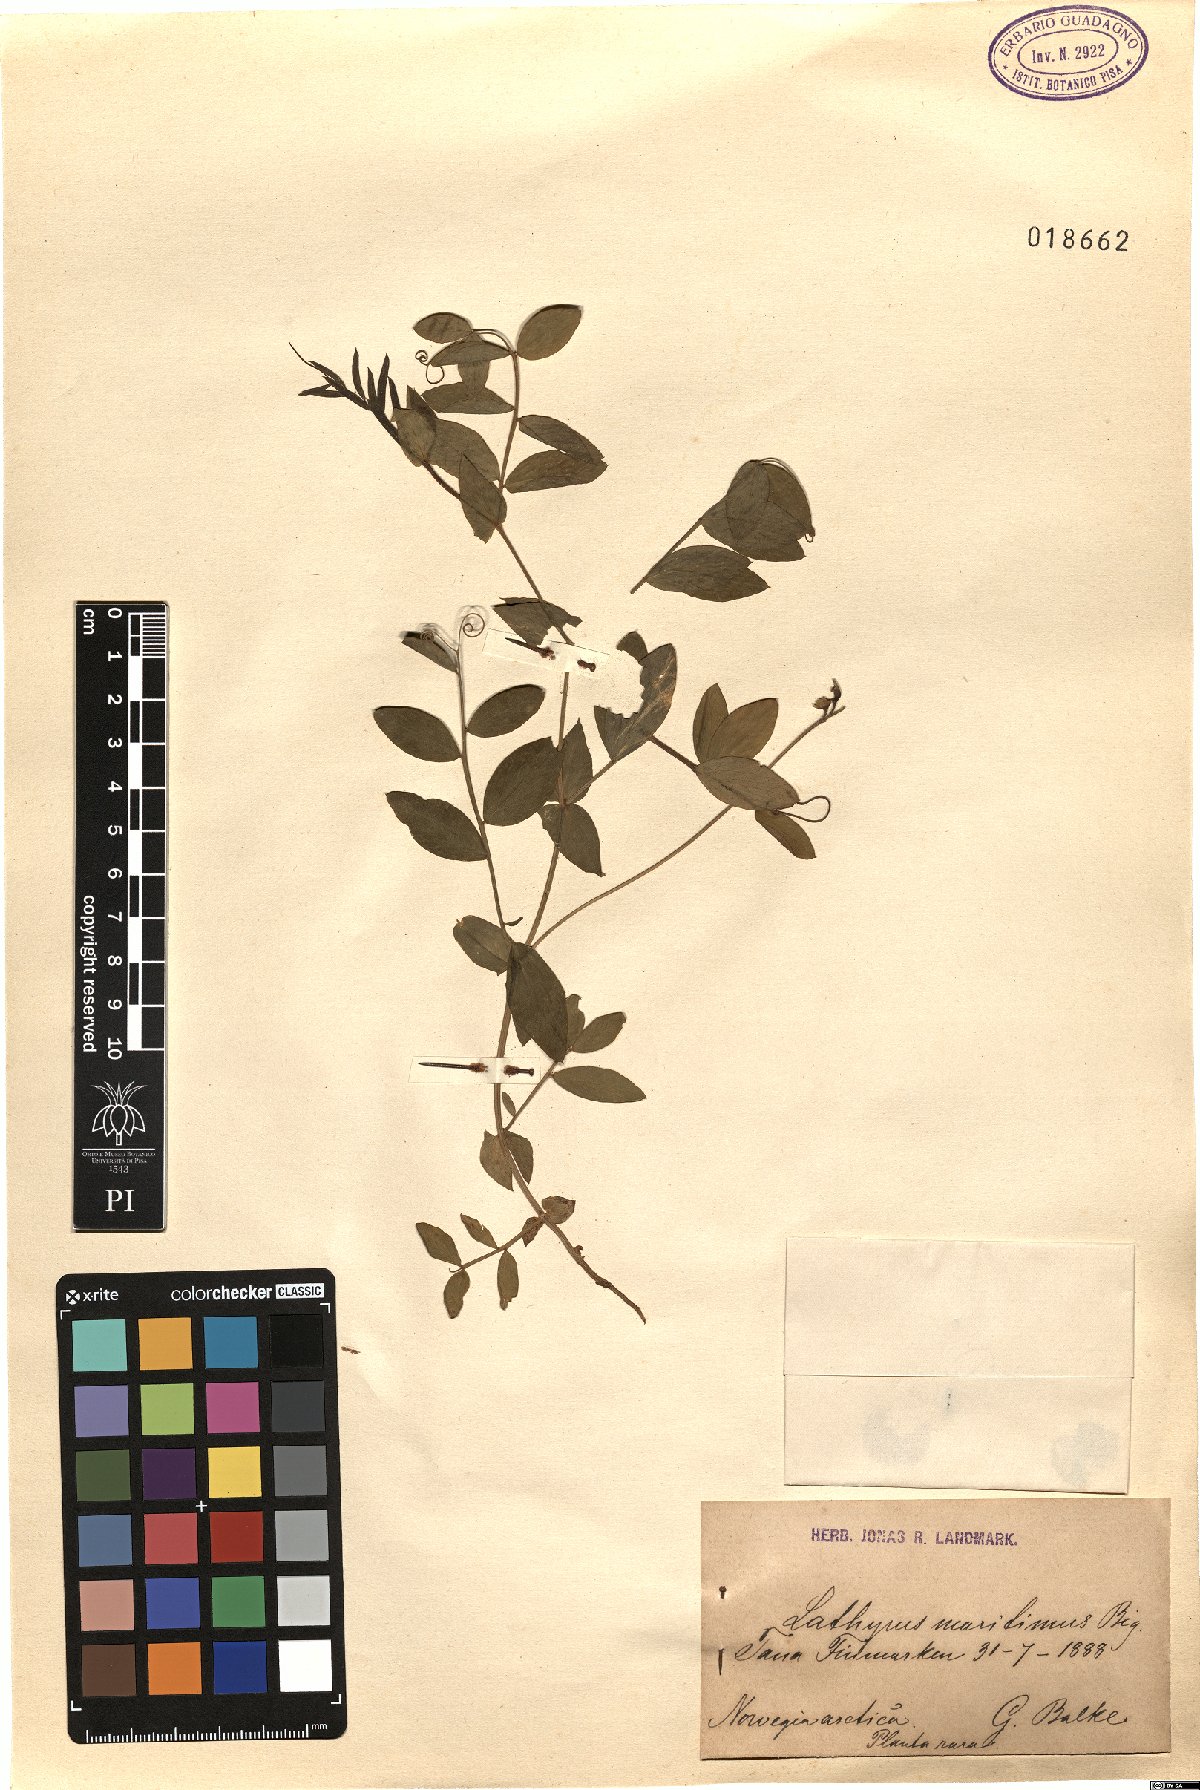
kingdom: Plantae
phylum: Tracheophyta
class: Magnoliopsida
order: Fabales
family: Fabaceae
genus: Lathyrus
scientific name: Lathyrus japonicus
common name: Sea pea
